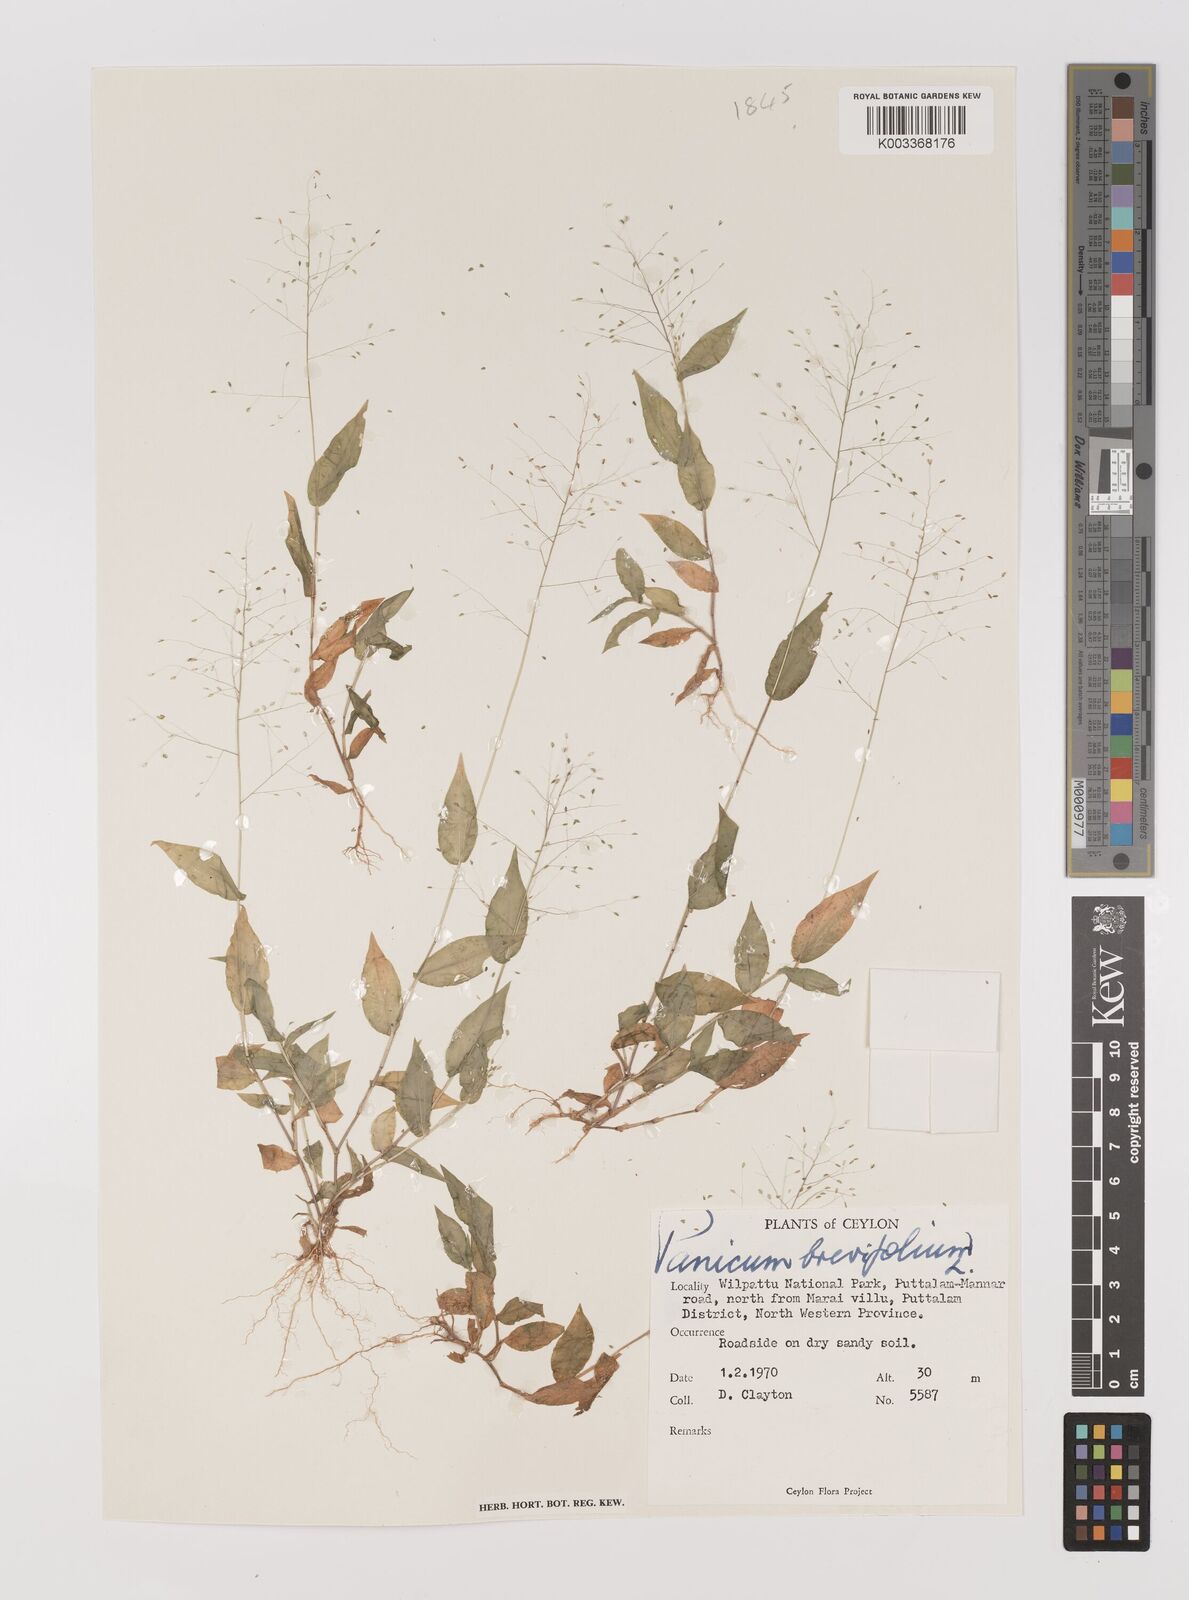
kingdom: Plantae
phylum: Tracheophyta
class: Liliopsida
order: Poales
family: Poaceae
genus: Panicum
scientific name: Panicum brevifolium
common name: Shortleaf panic grass
